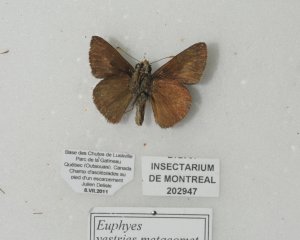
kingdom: Animalia
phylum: Arthropoda
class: Insecta
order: Lepidoptera
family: Hesperiidae
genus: Euphyes
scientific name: Euphyes vestris
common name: Dun Skipper
